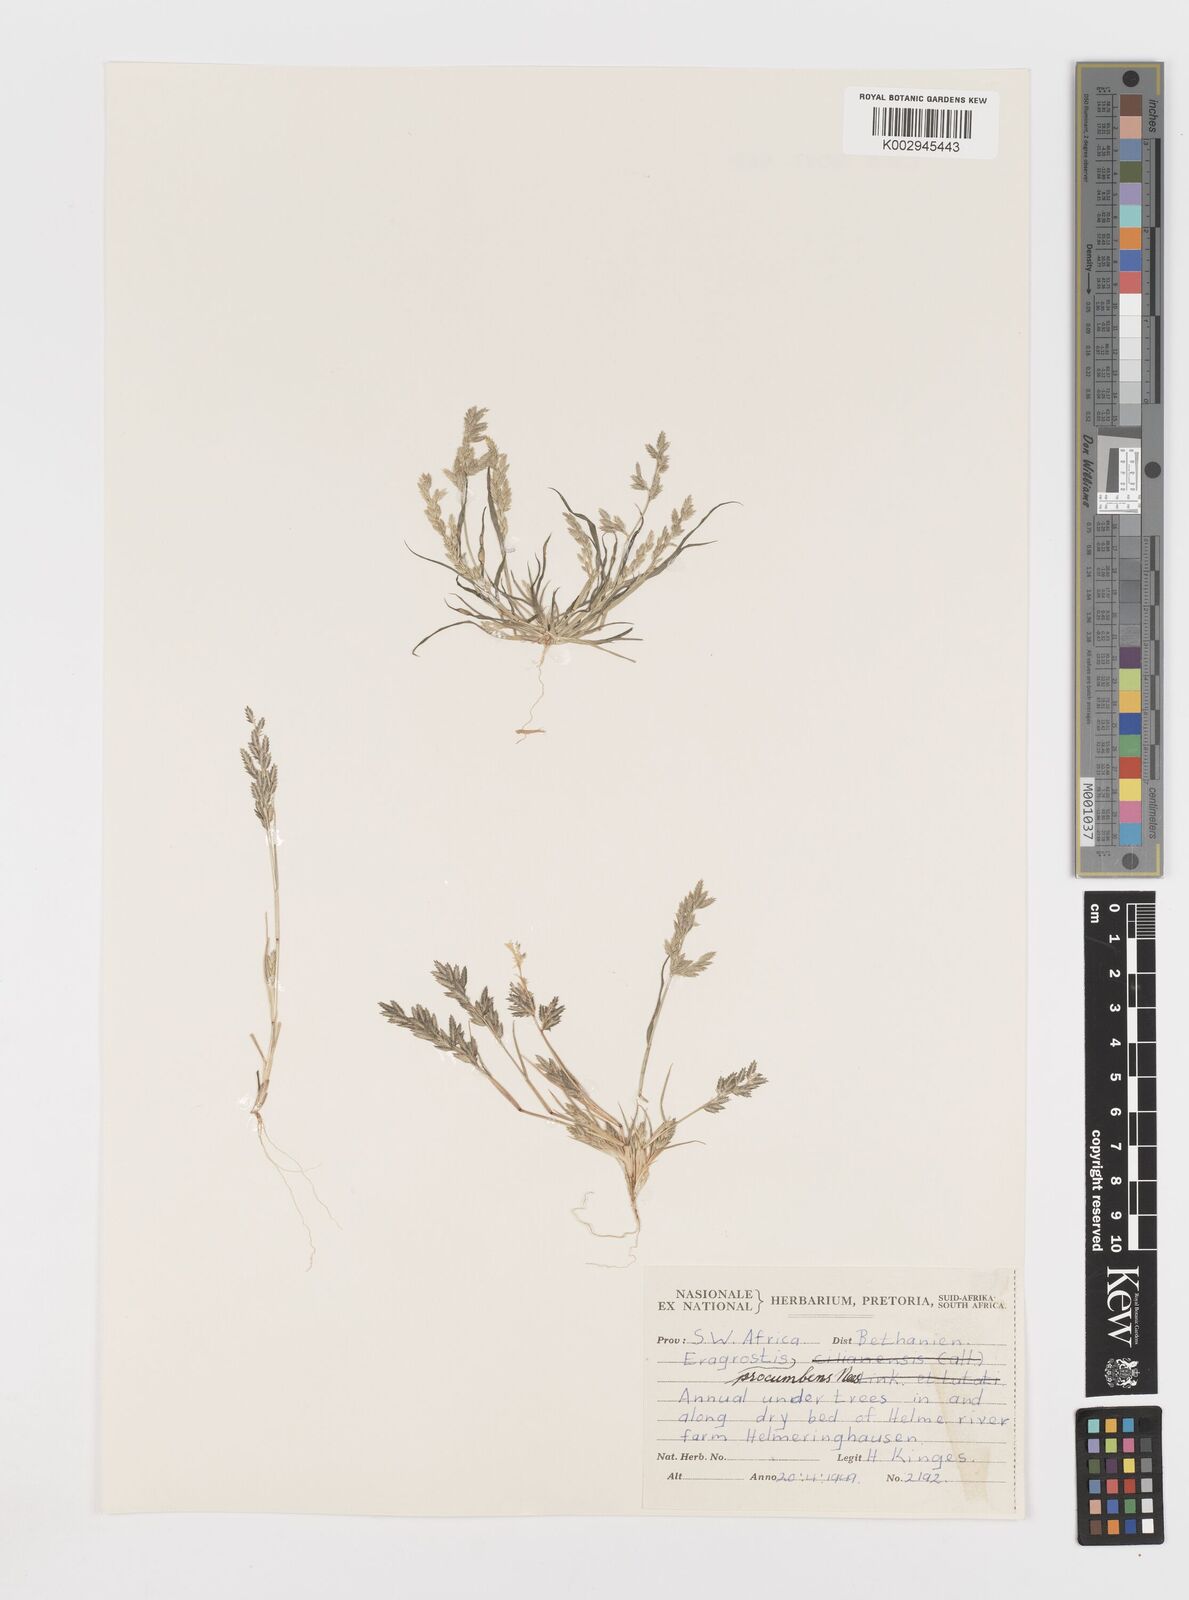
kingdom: Plantae
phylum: Tracheophyta
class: Liliopsida
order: Poales
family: Poaceae
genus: Eragrostis
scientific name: Eragrostis procumbens
